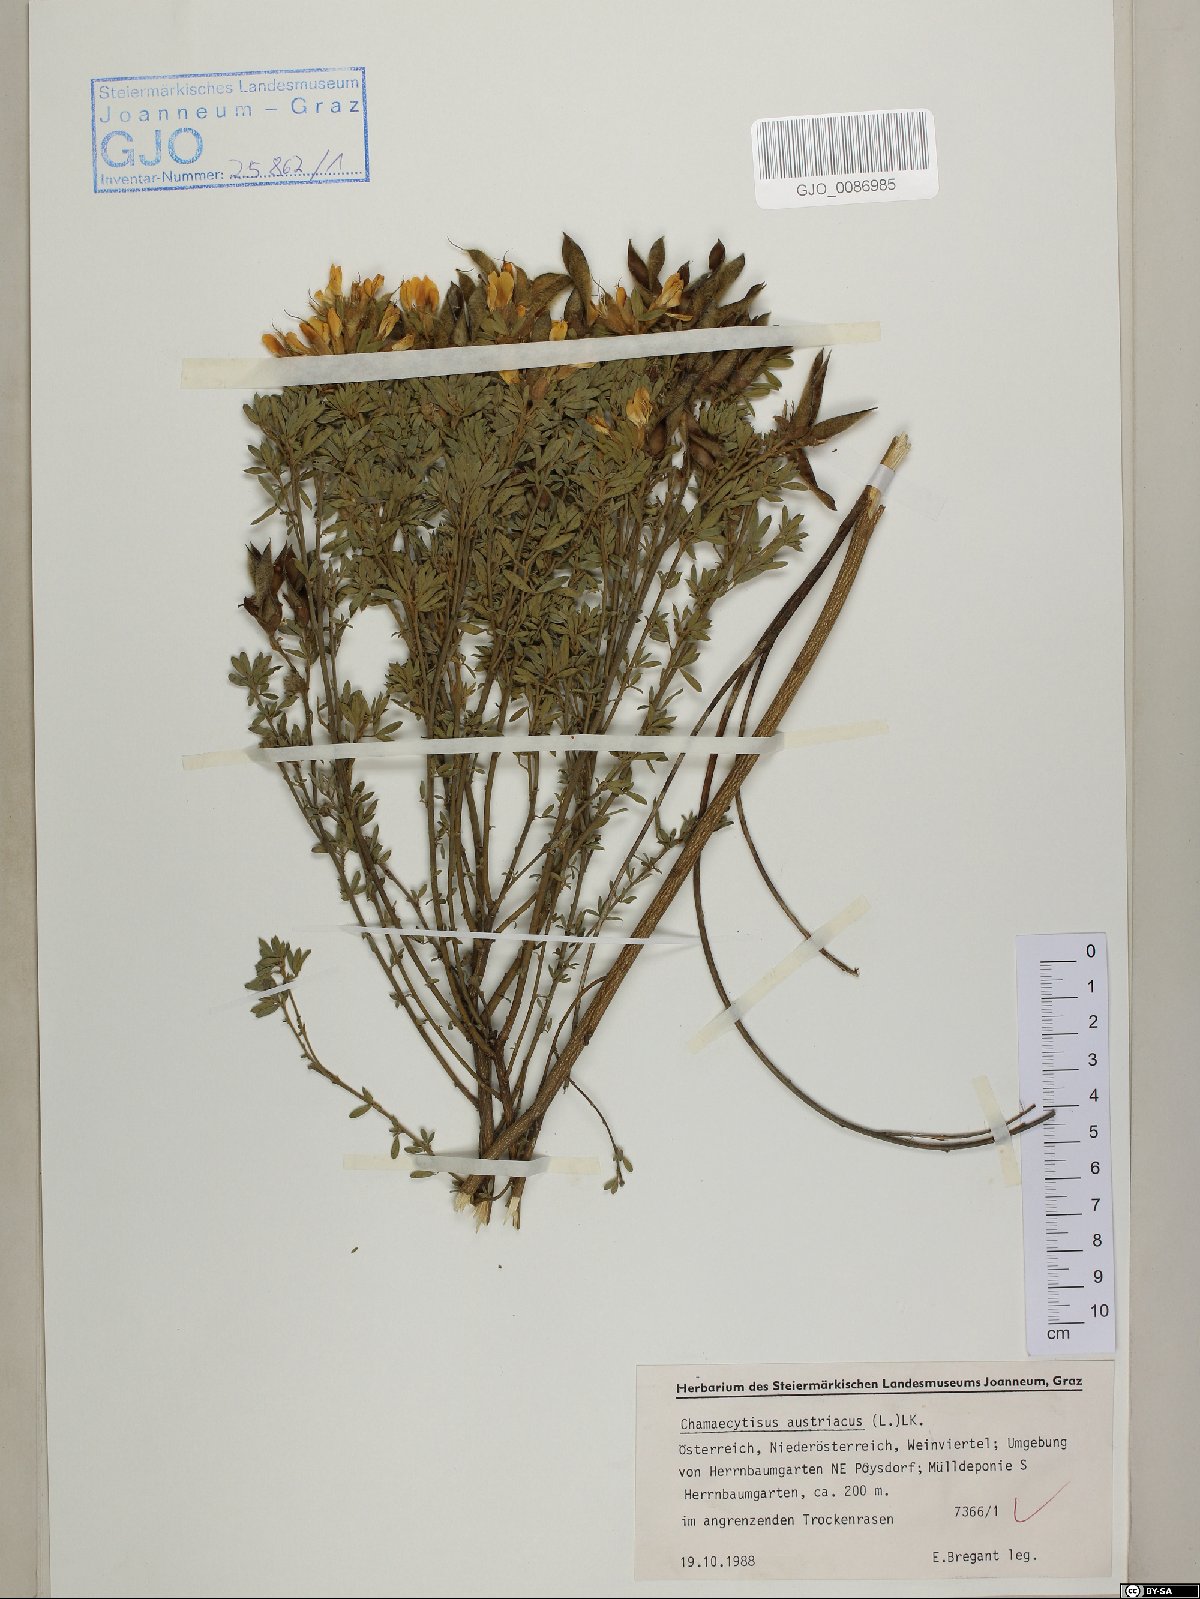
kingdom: Plantae
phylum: Tracheophyta
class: Magnoliopsida
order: Fabales
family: Fabaceae
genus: Chamaecytisus
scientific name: Chamaecytisus austriacus
